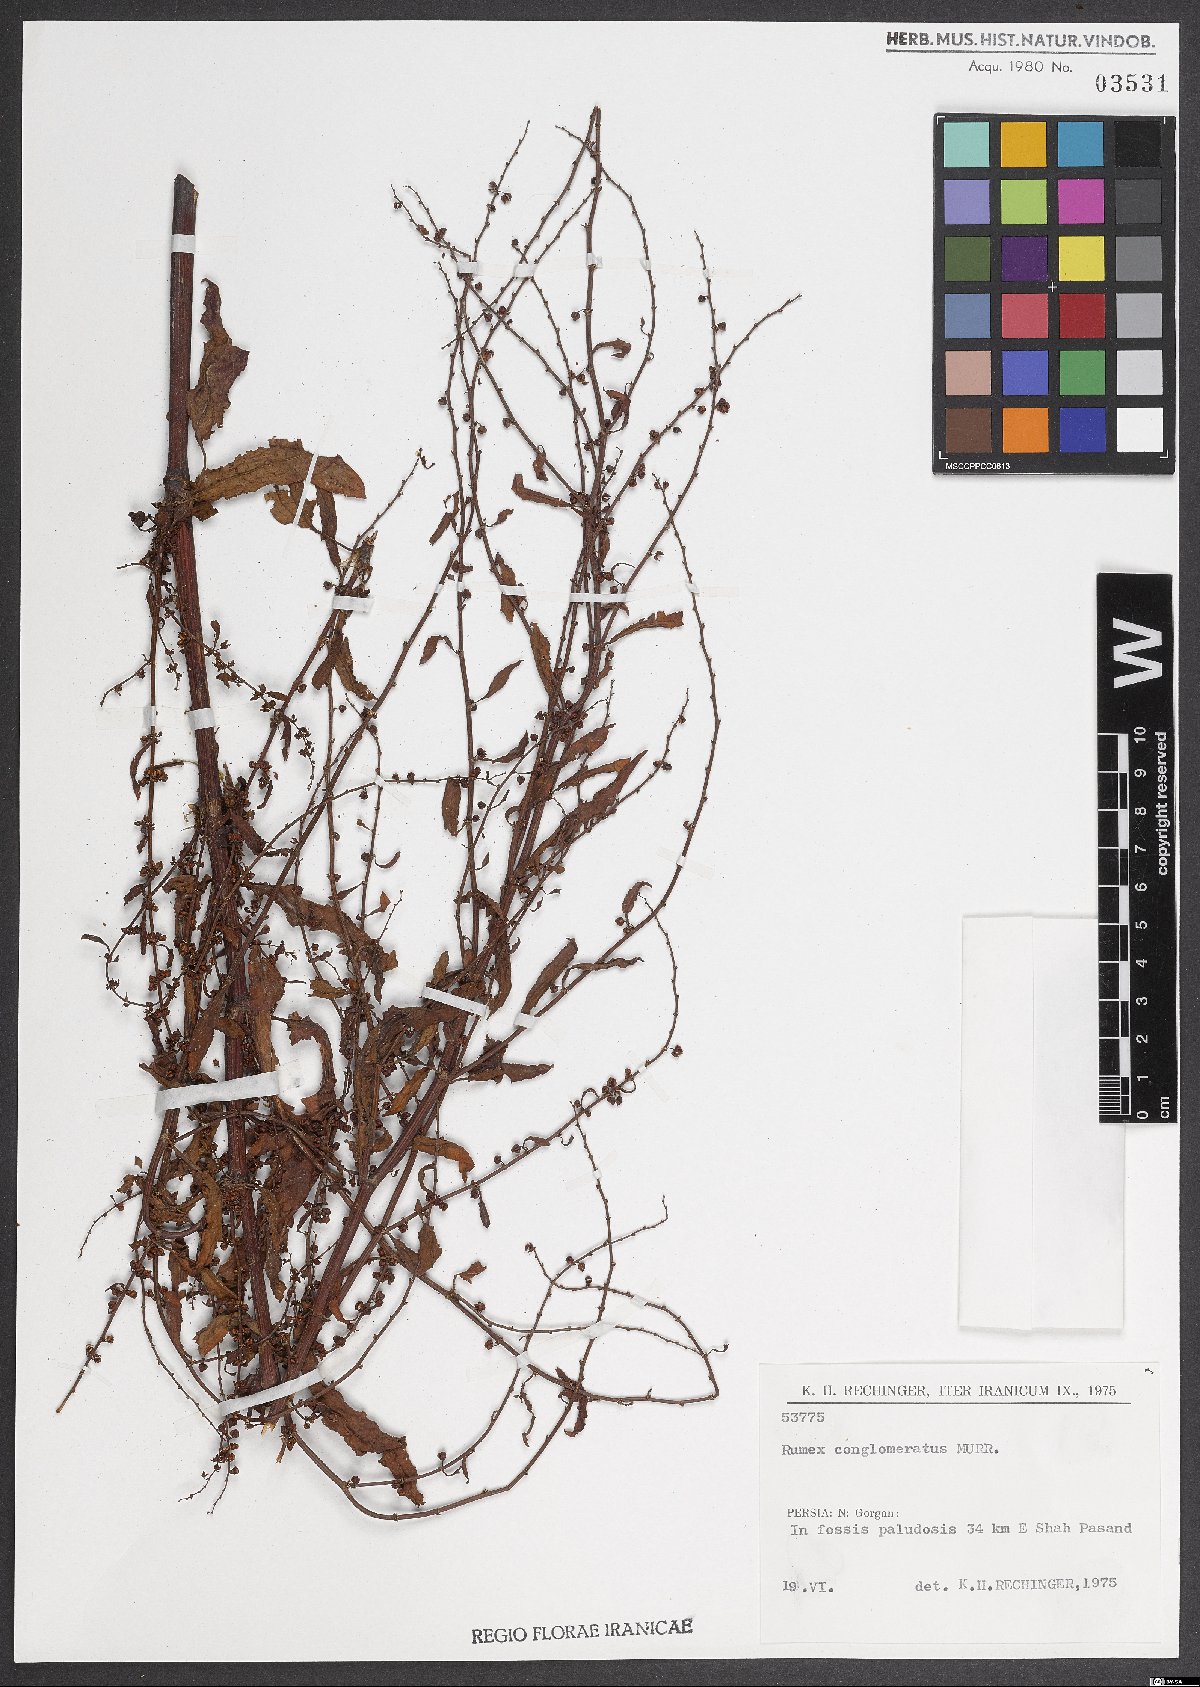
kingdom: Plantae
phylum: Tracheophyta
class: Magnoliopsida
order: Caryophyllales
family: Polygonaceae
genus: Rumex
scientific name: Rumex conglomeratus
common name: Clustered dock
